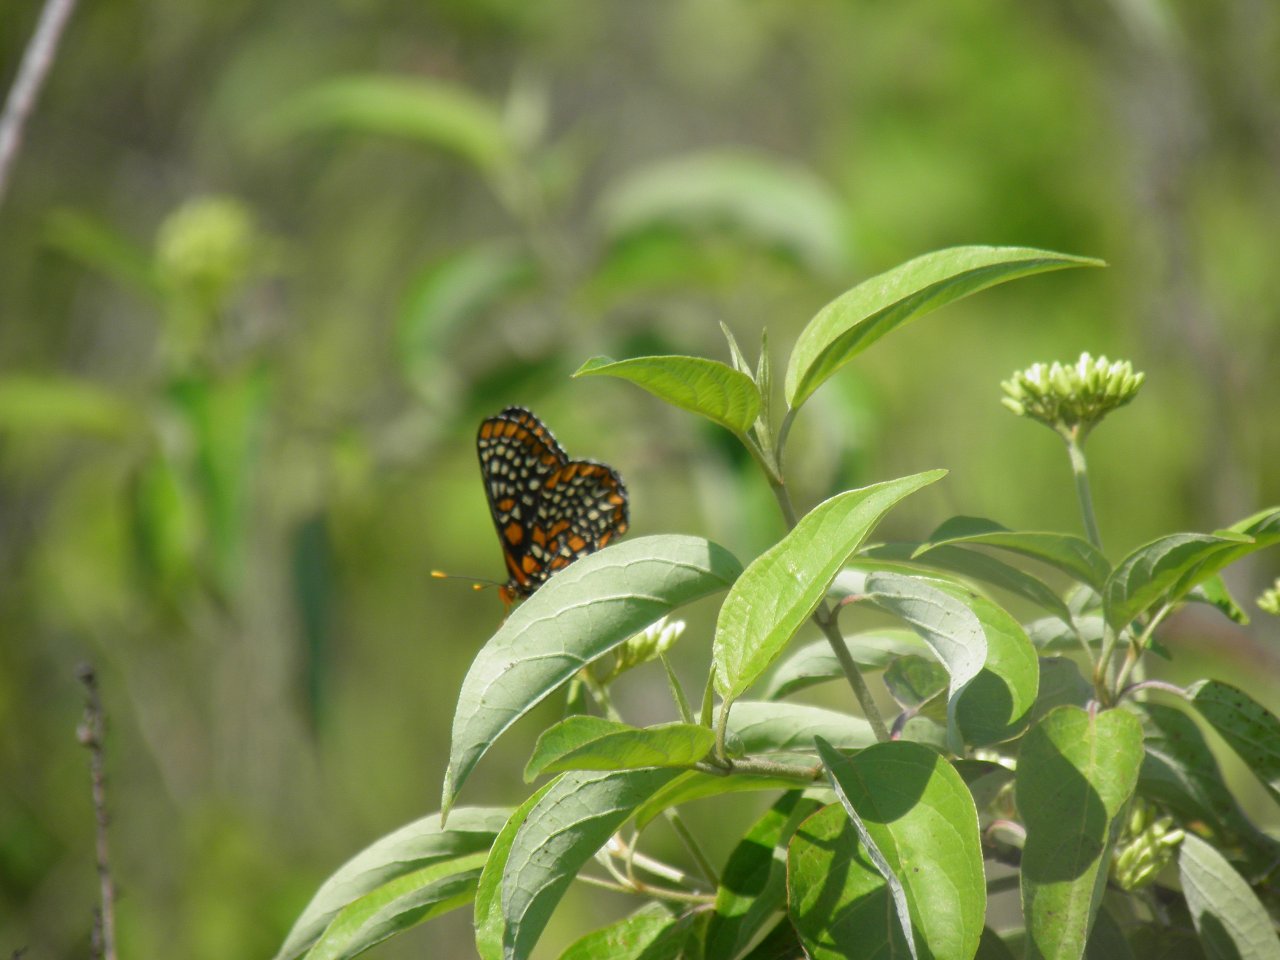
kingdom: Animalia
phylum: Arthropoda
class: Insecta
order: Lepidoptera
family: Nymphalidae
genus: Euphydryas
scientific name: Euphydryas phaeton
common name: Baltimore Checkerspot
